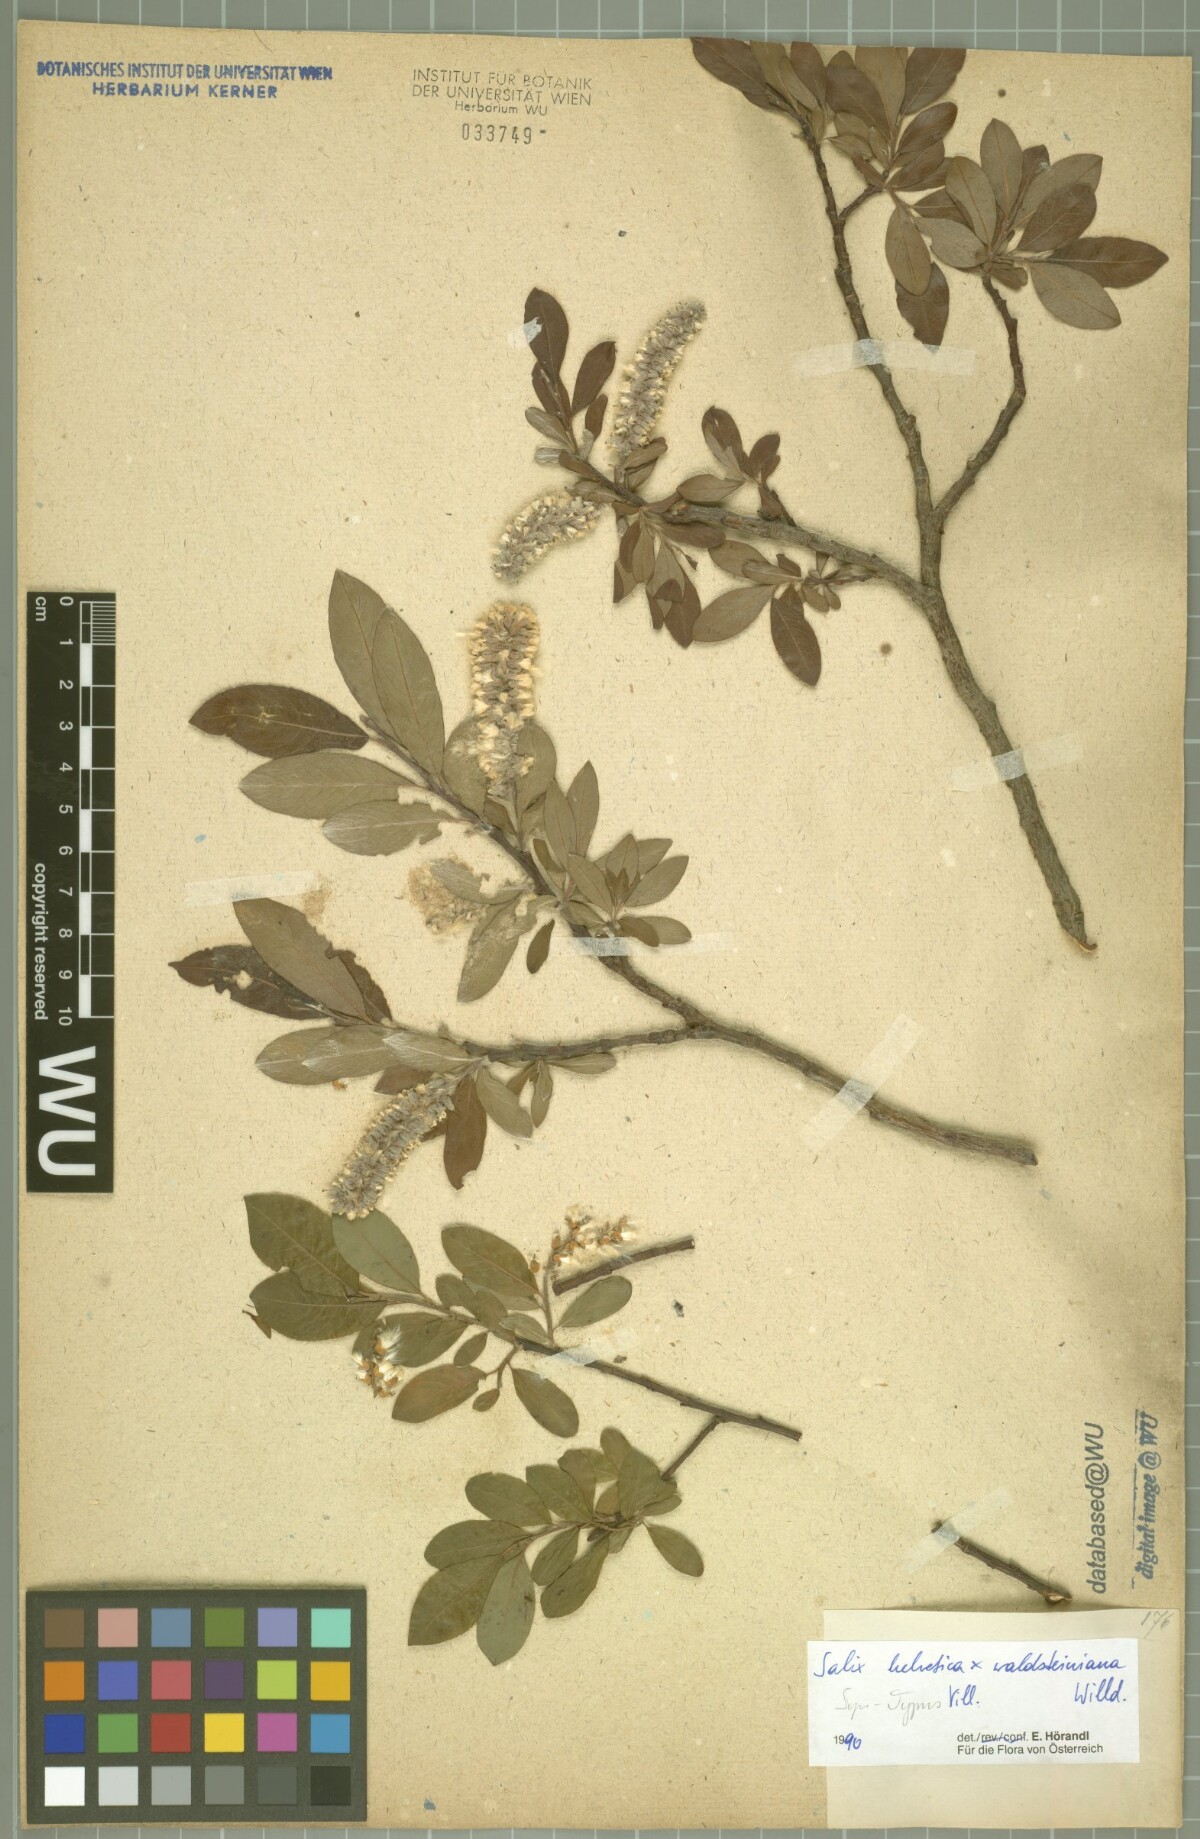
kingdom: Plantae
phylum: Tracheophyta
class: Magnoliopsida
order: Malpighiales
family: Salicaceae
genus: Salix
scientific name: Salix lapponum
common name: Downy willow
